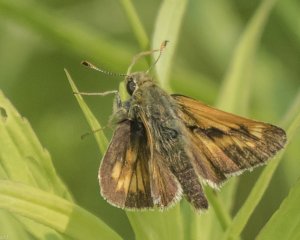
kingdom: Animalia
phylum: Arthropoda
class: Insecta
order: Lepidoptera
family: Hesperiidae
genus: Polites
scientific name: Polites
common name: Long Dash Skipper
